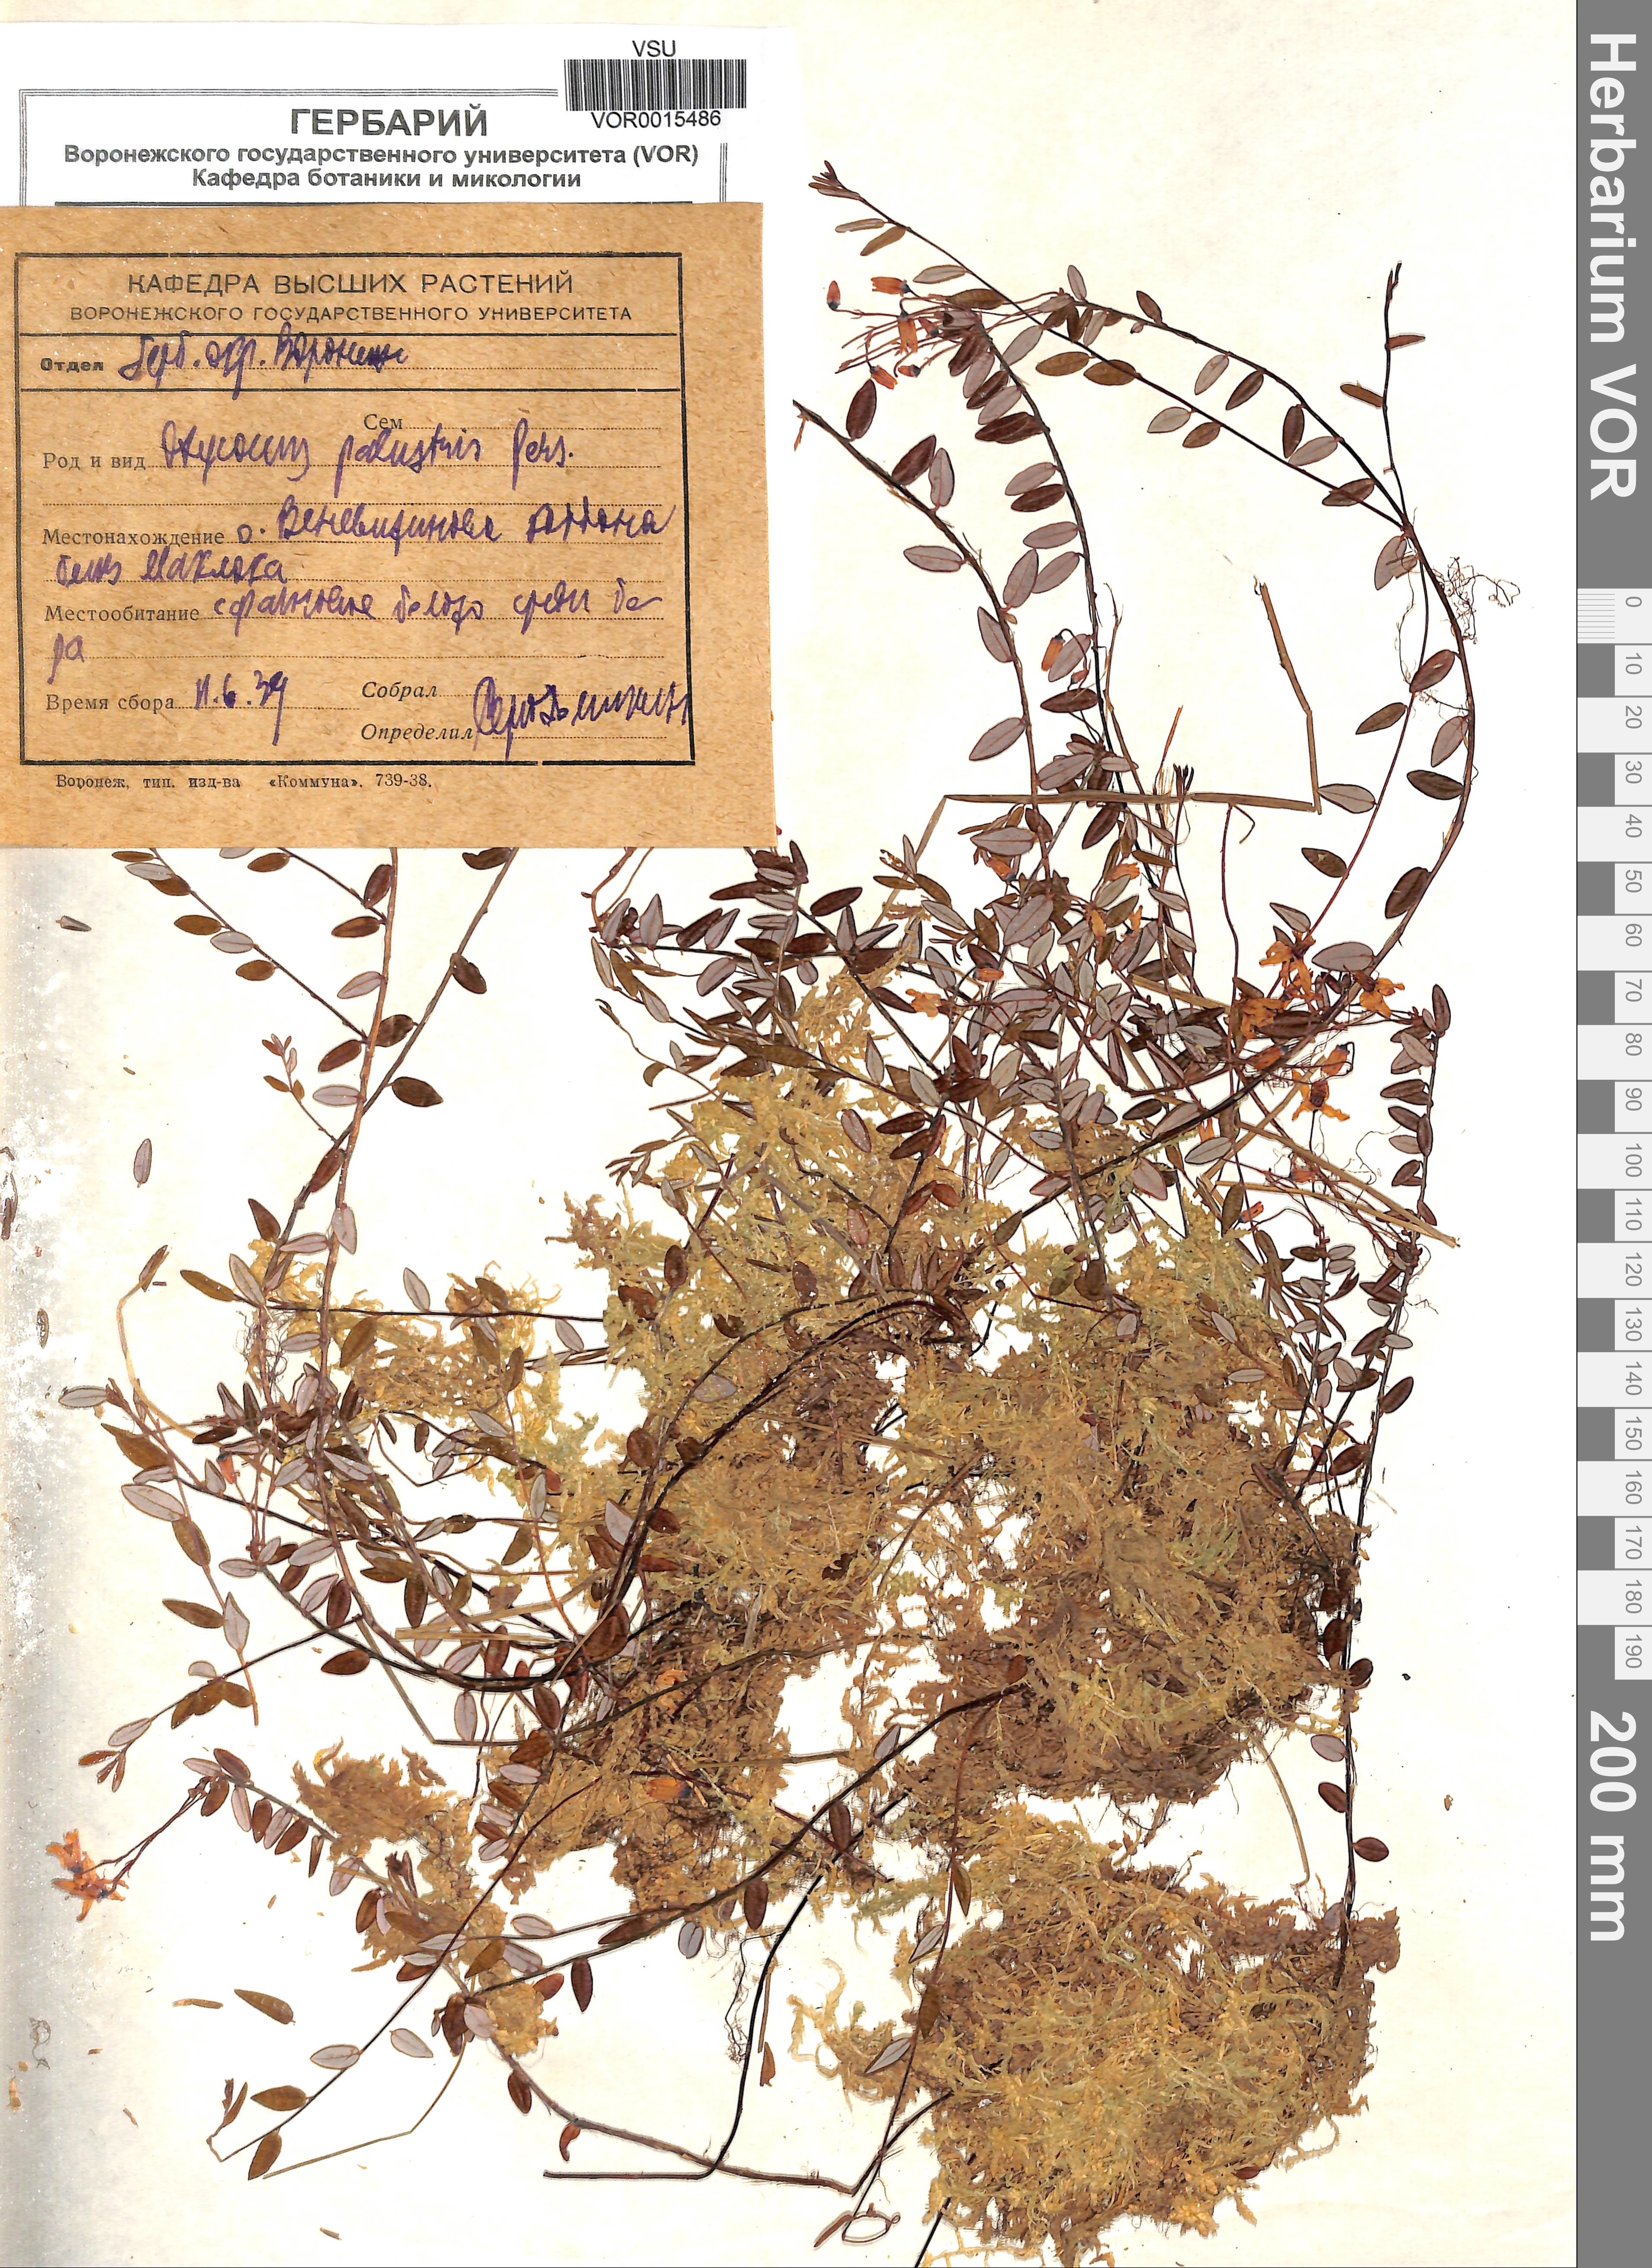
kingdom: Plantae
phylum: Tracheophyta
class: Magnoliopsida
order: Ericales
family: Ericaceae
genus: Vaccinium
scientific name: Vaccinium oxycoccos
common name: Cranberry
